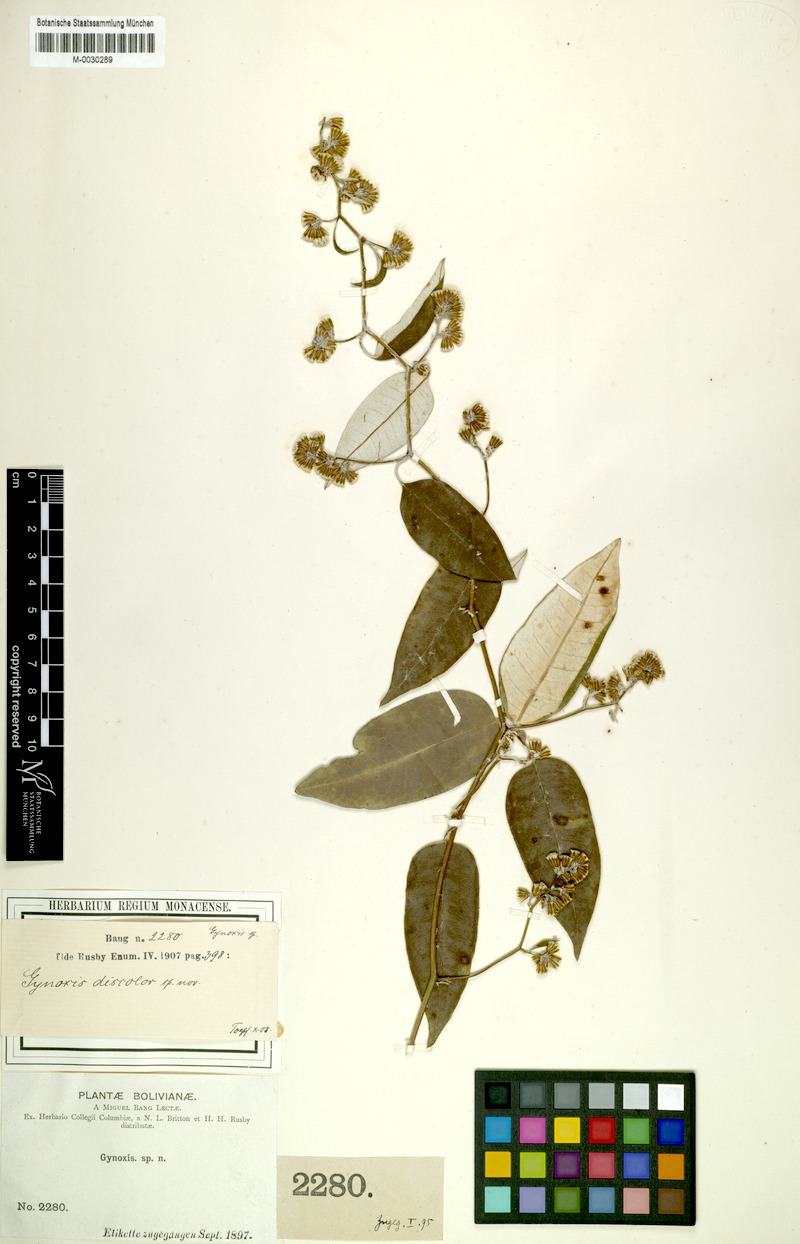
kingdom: Plantae
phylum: Tracheophyta
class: Magnoliopsida
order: Asterales
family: Asteraceae
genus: Pentacalia
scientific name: Pentacalia herzogii
